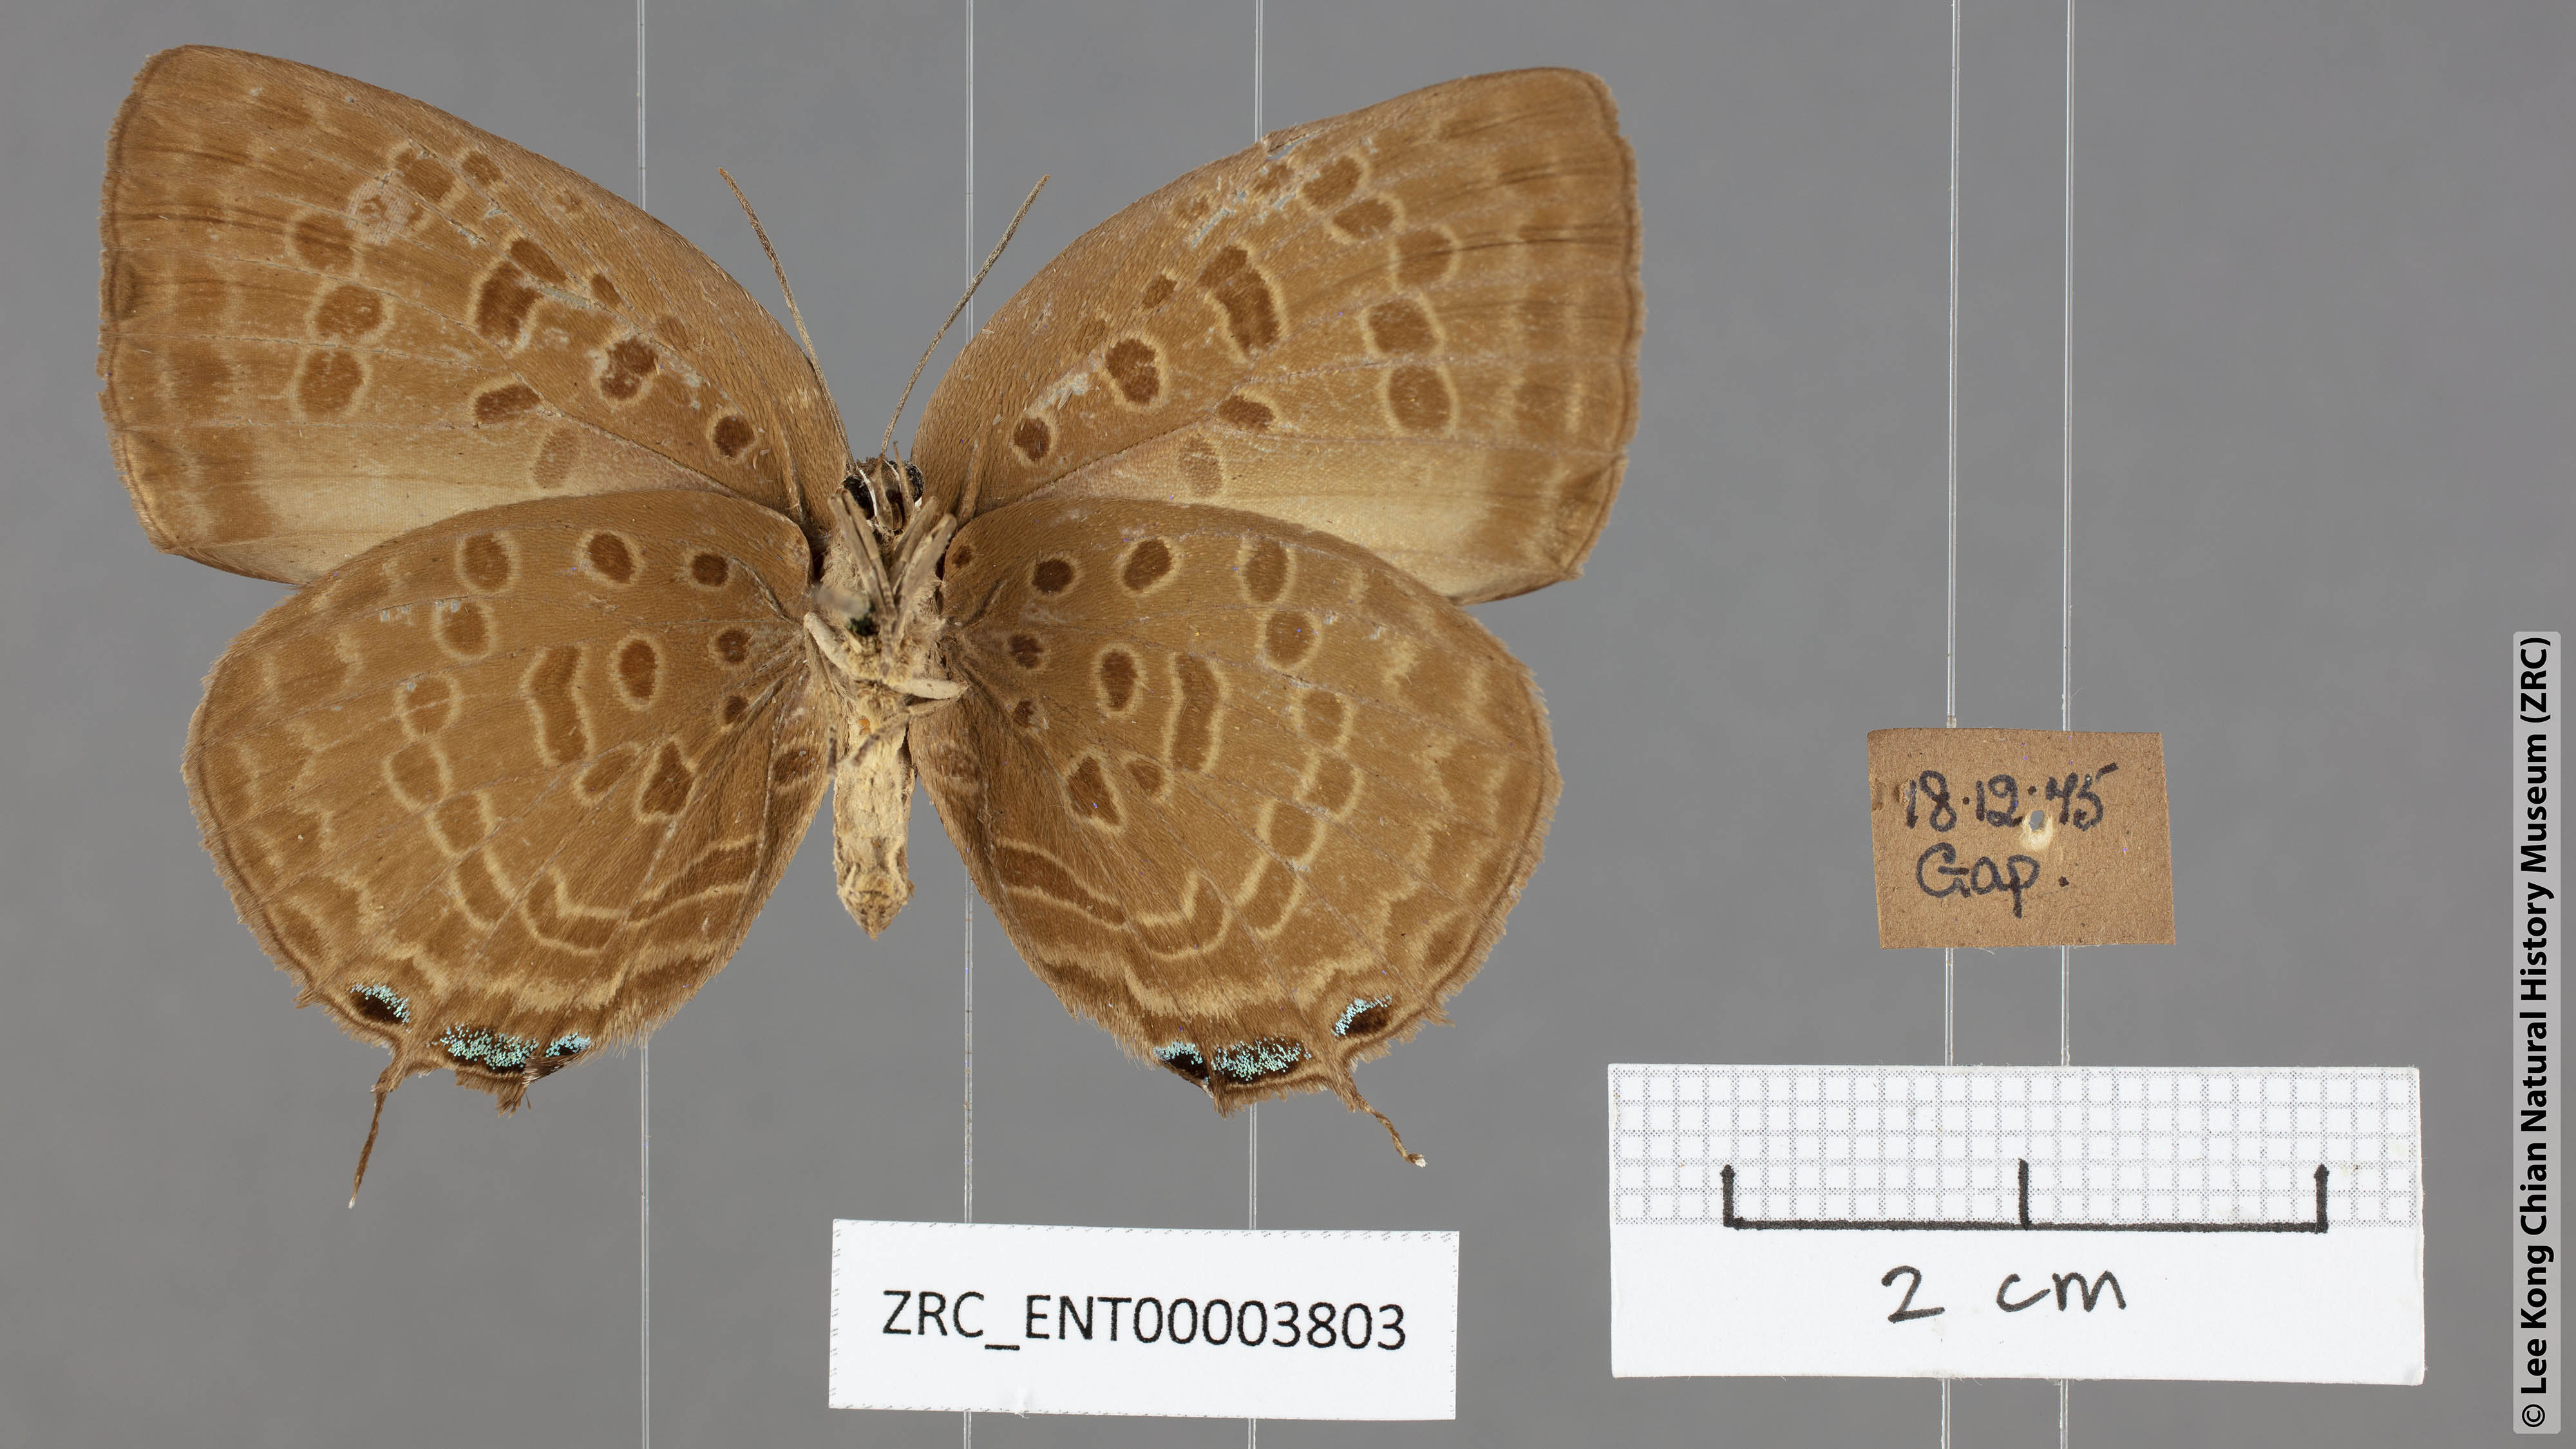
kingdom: Animalia
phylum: Arthropoda
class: Insecta
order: Lepidoptera
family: Lycaenidae
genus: Arhopala
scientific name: Arhopala aedias
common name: Large metallic oakblue
